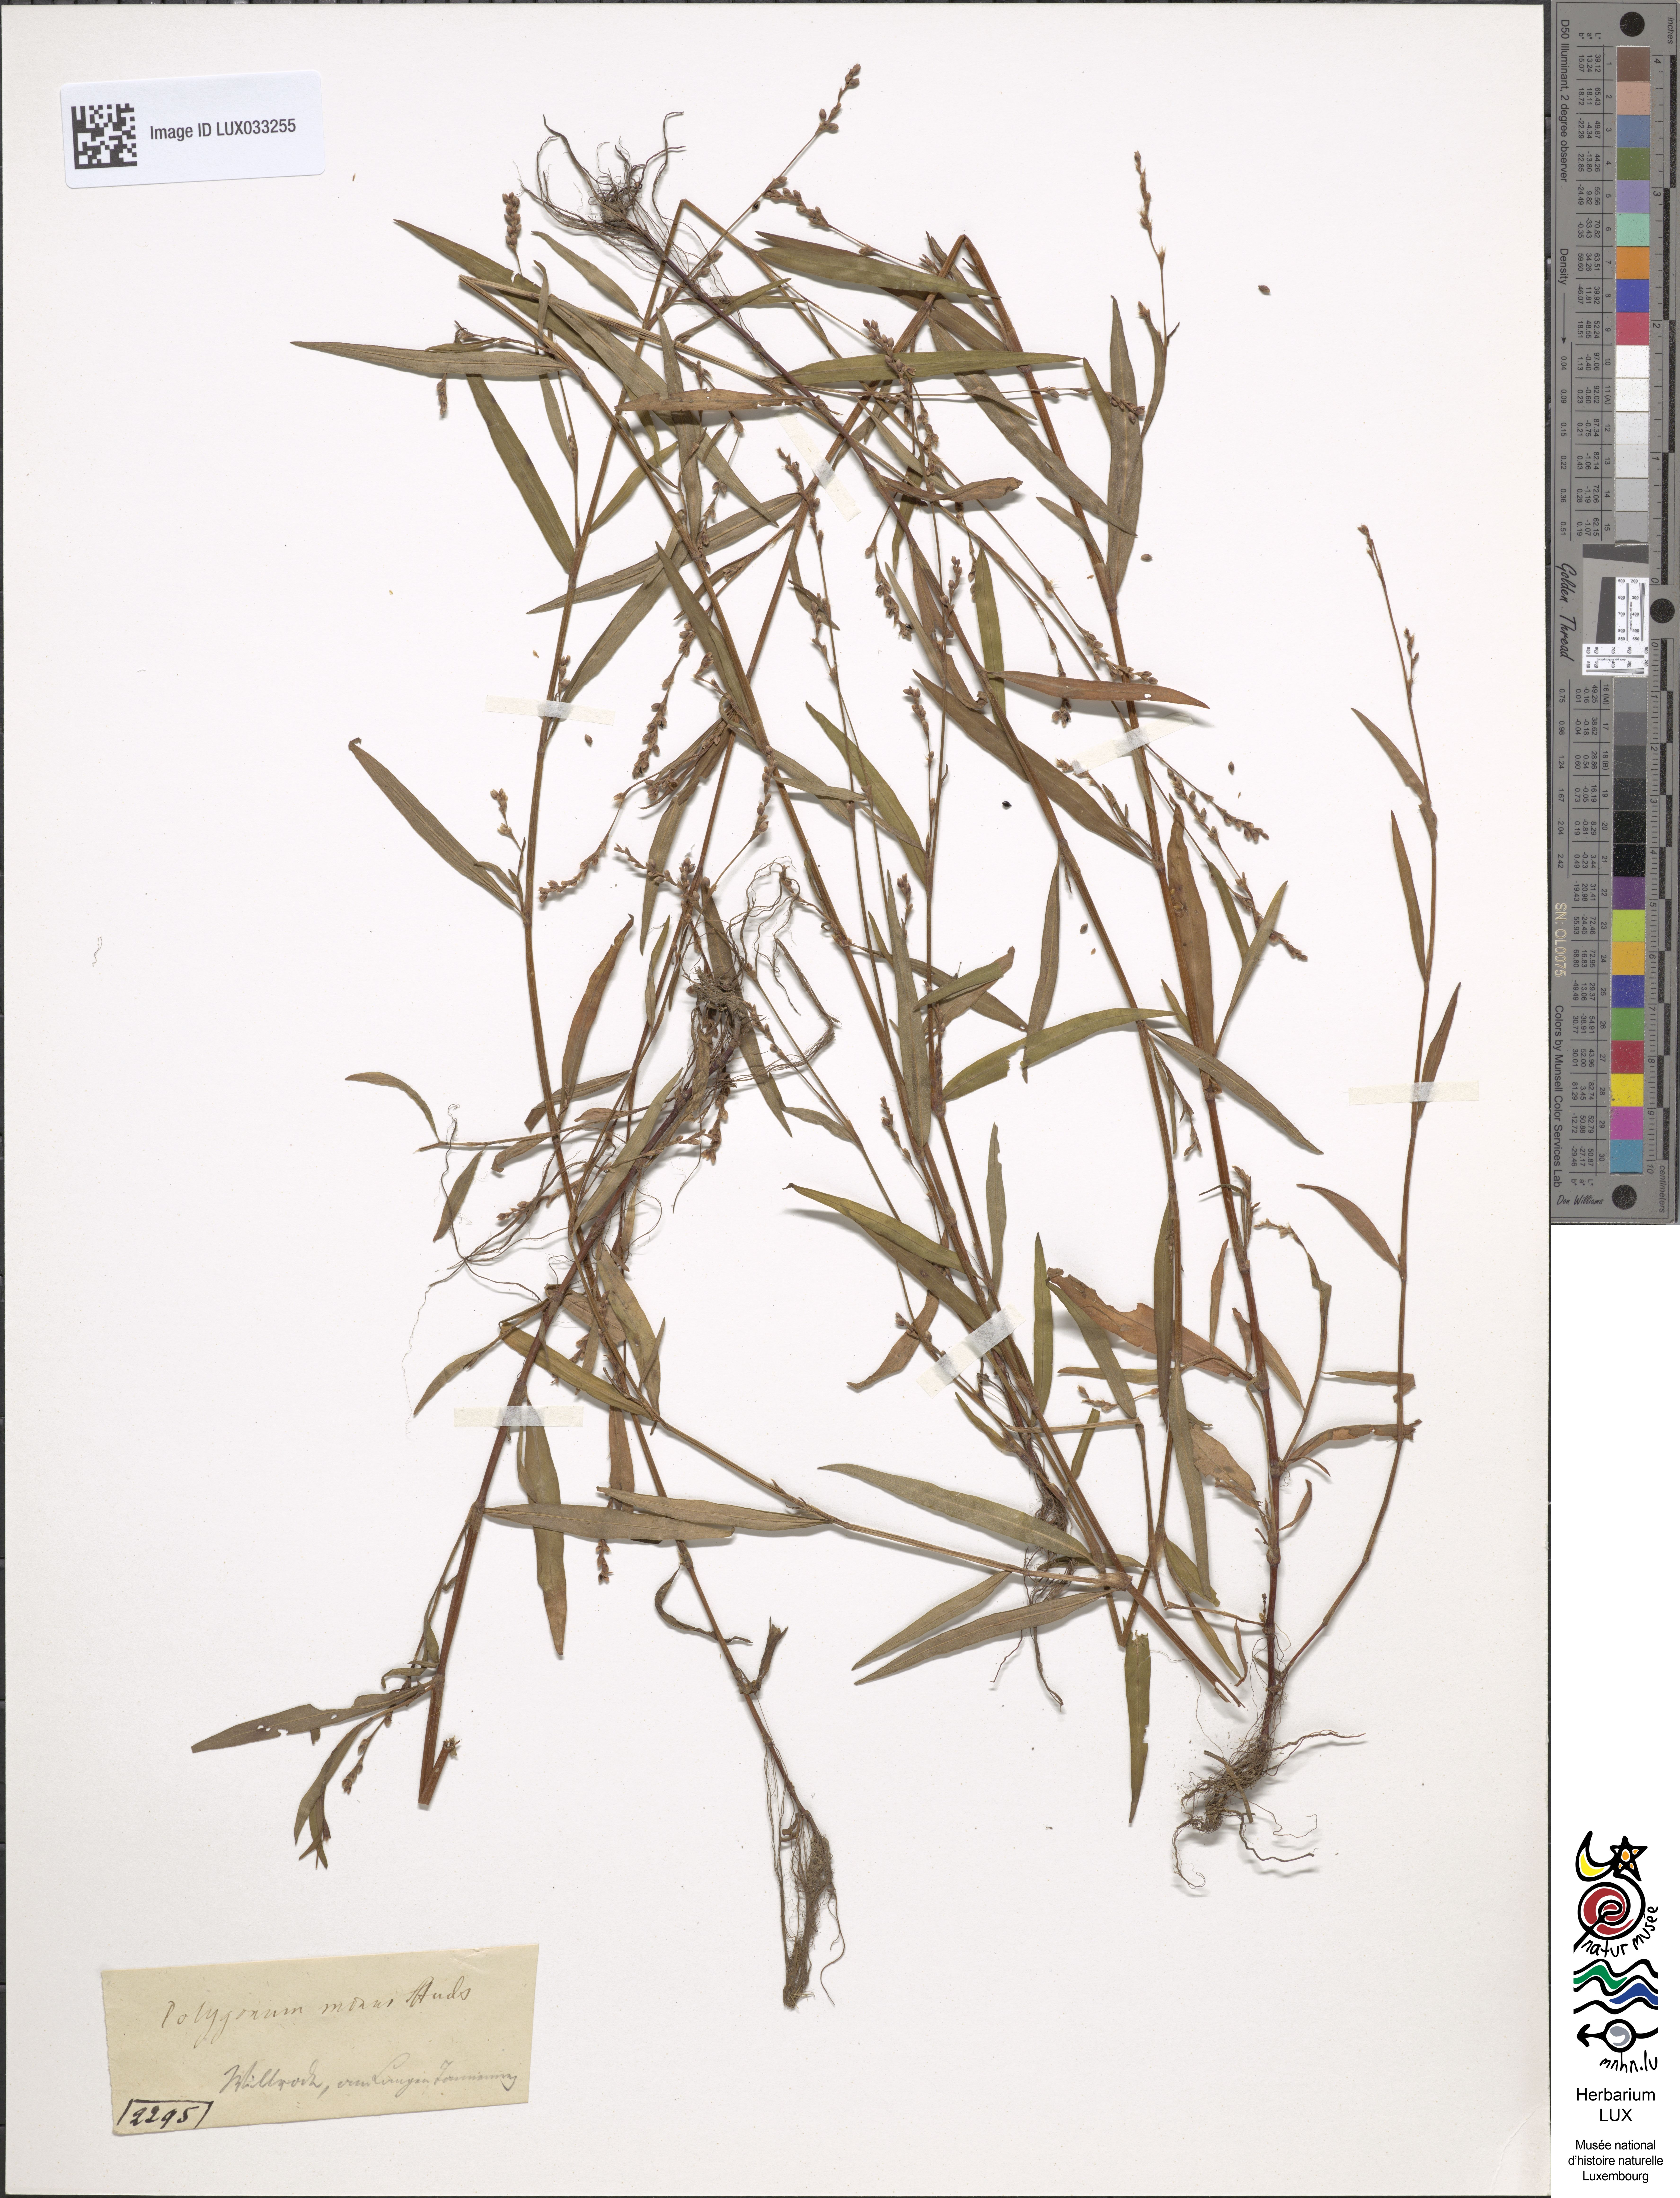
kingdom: Plantae
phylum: Tracheophyta
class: Magnoliopsida
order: Caryophyllales
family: Polygonaceae
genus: Persicaria
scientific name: Persicaria minor
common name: Small water-pepper
